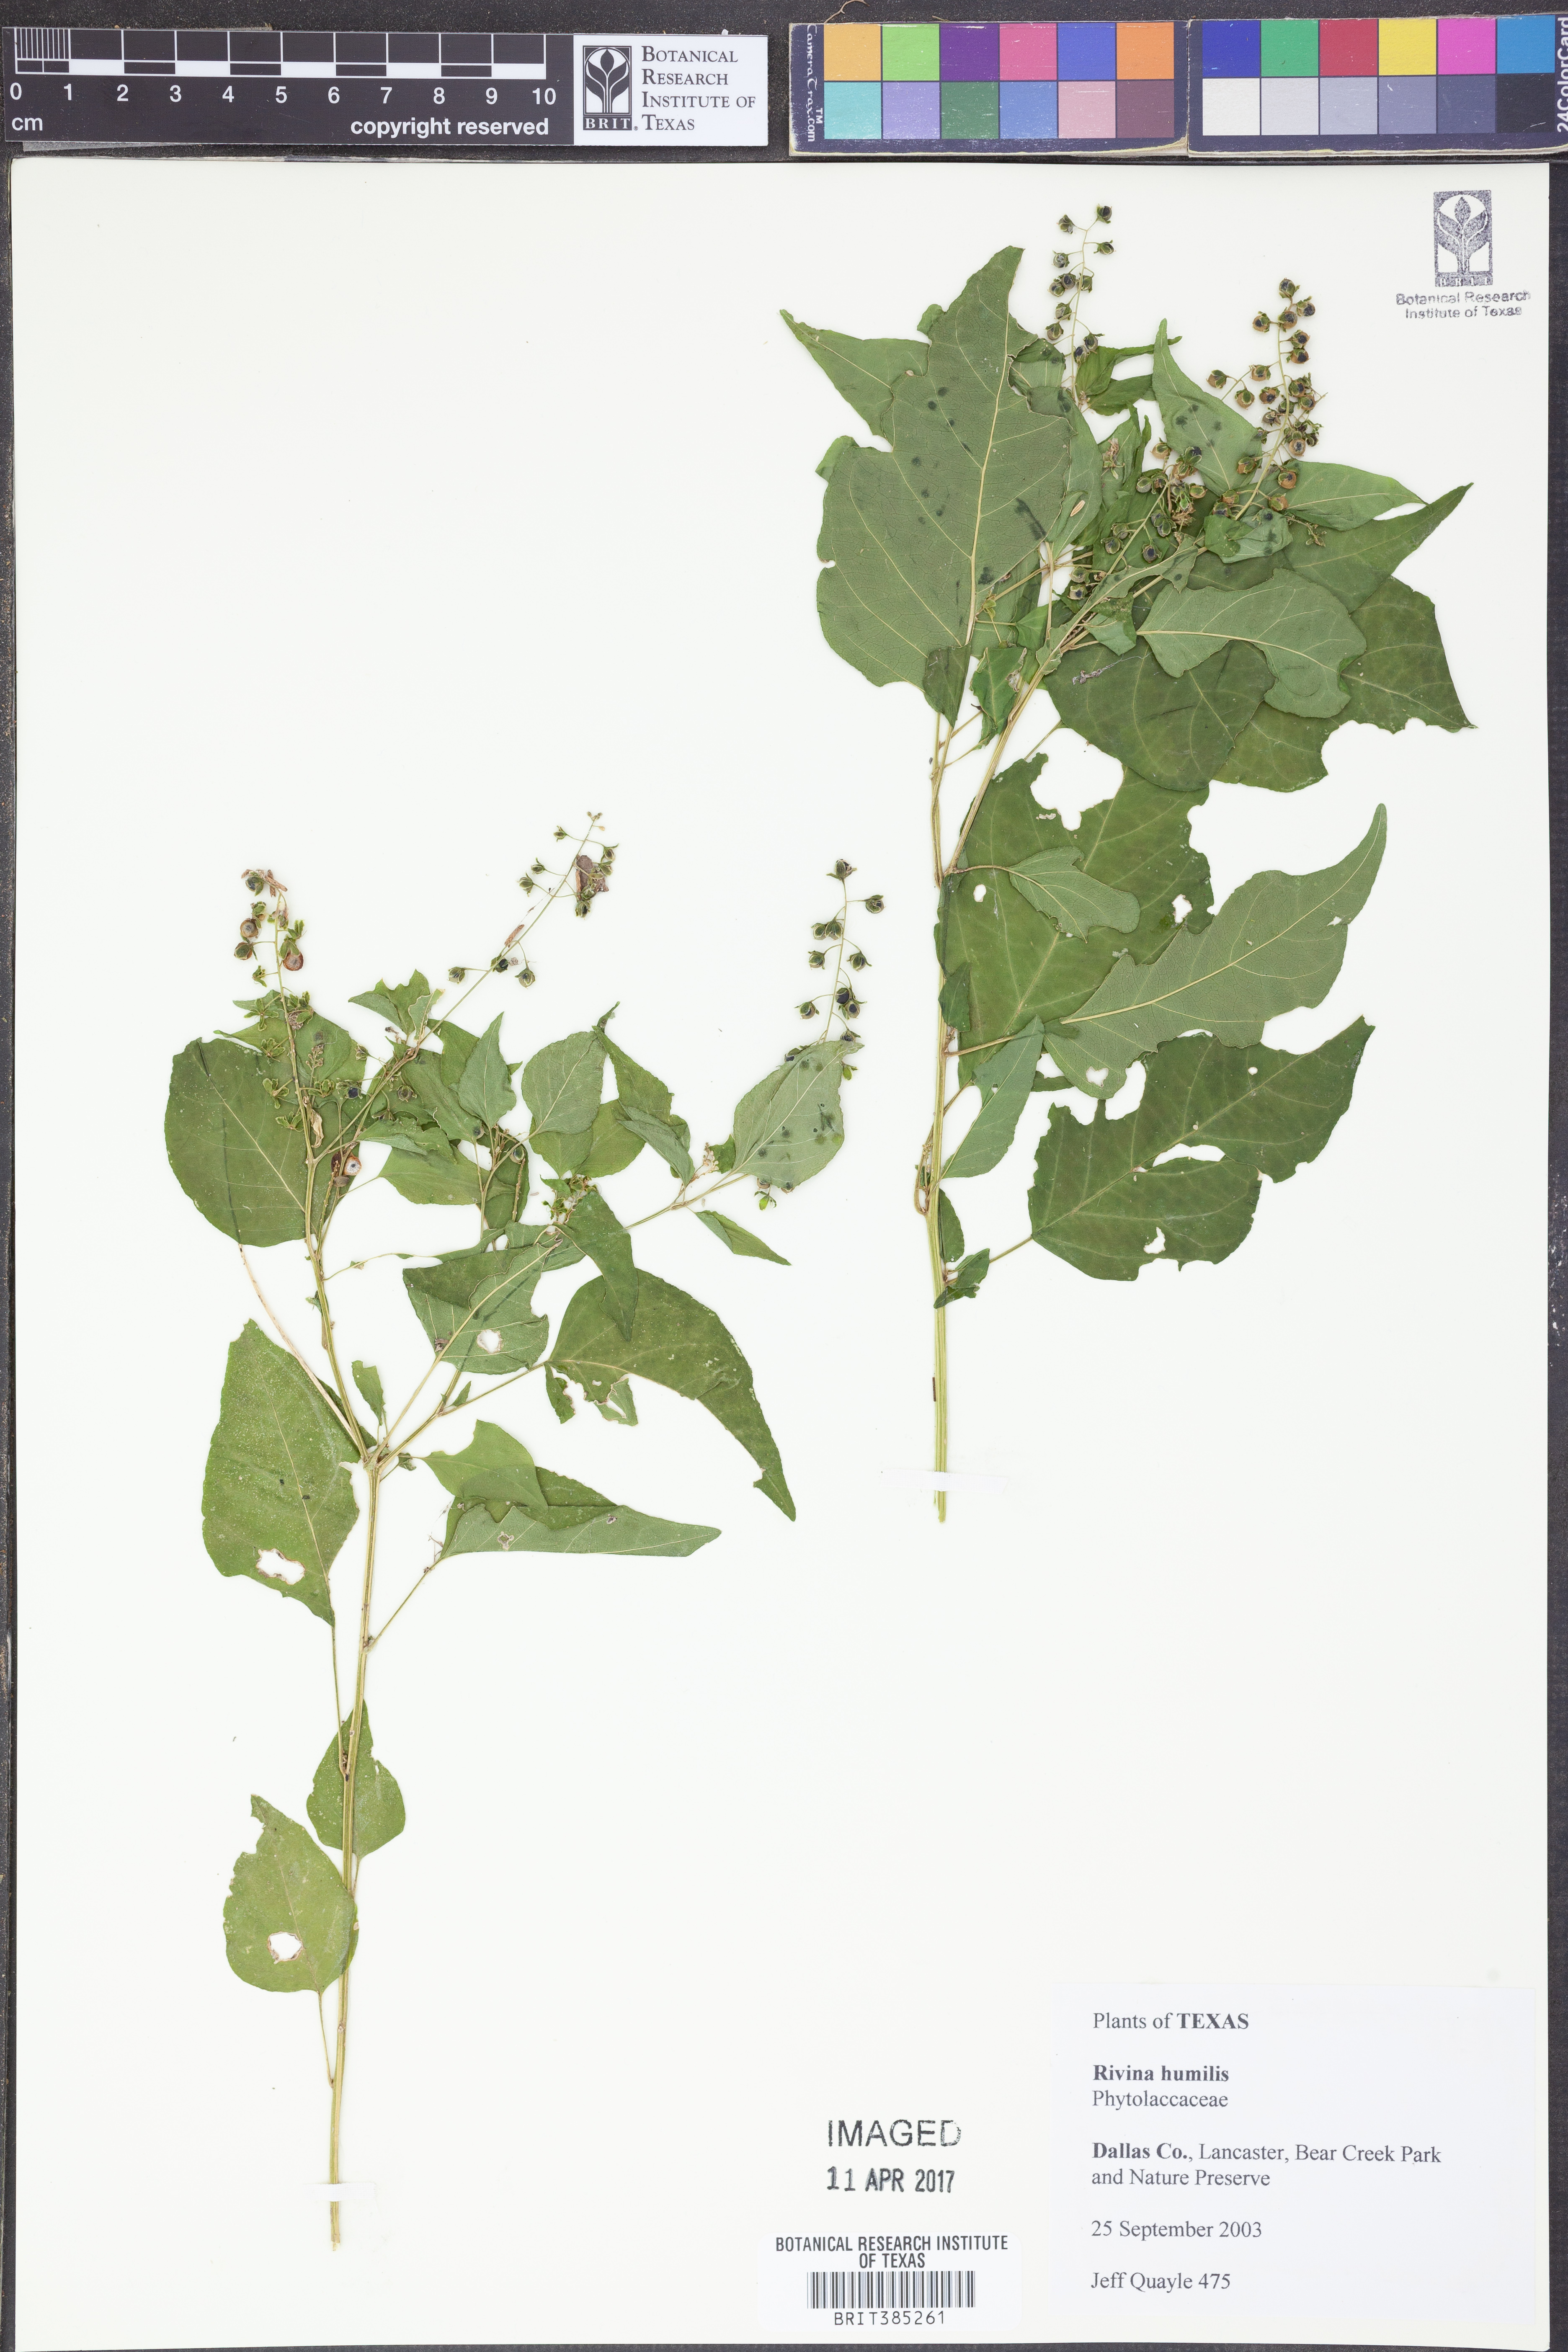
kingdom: Plantae
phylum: Tracheophyta
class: Magnoliopsida
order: Caryophyllales
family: Phytolaccaceae
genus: Rivina
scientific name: Rivina humilis
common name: Rougeplant
